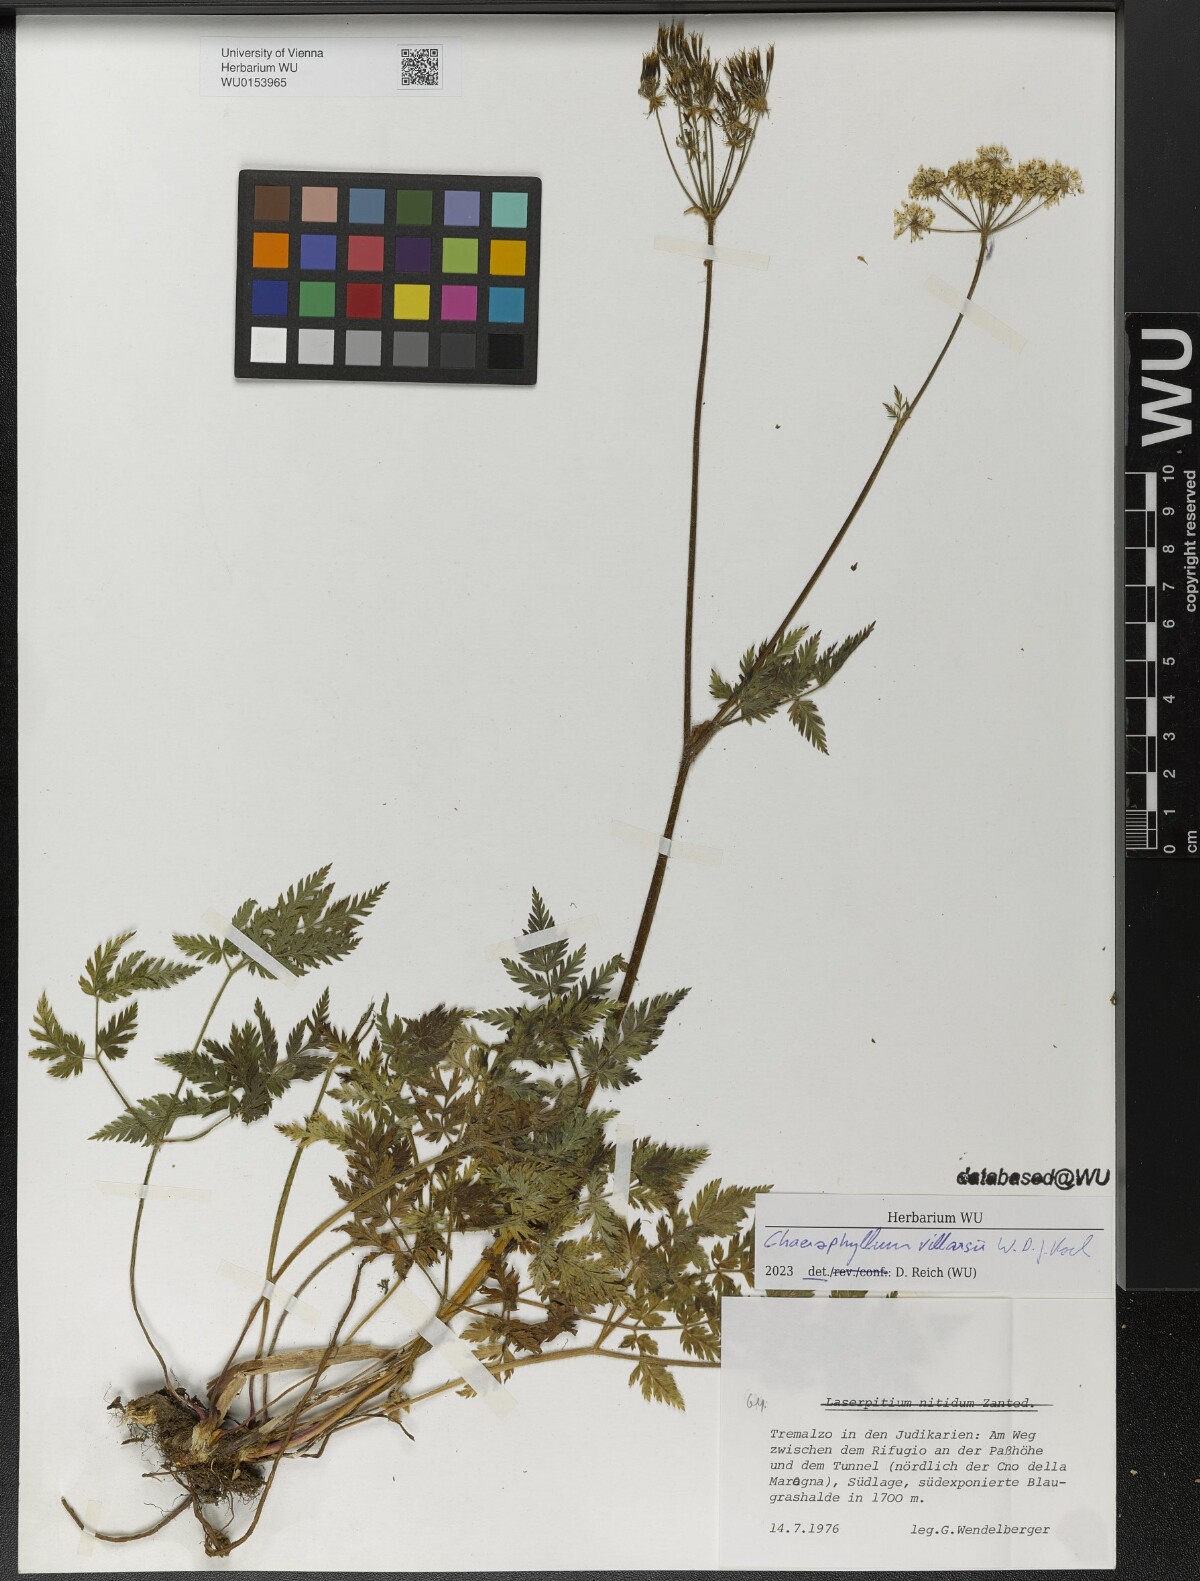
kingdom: Plantae
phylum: Tracheophyta
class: Magnoliopsida
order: Apiales
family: Apiaceae
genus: Chaerophyllum
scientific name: Chaerophyllum villarsii
